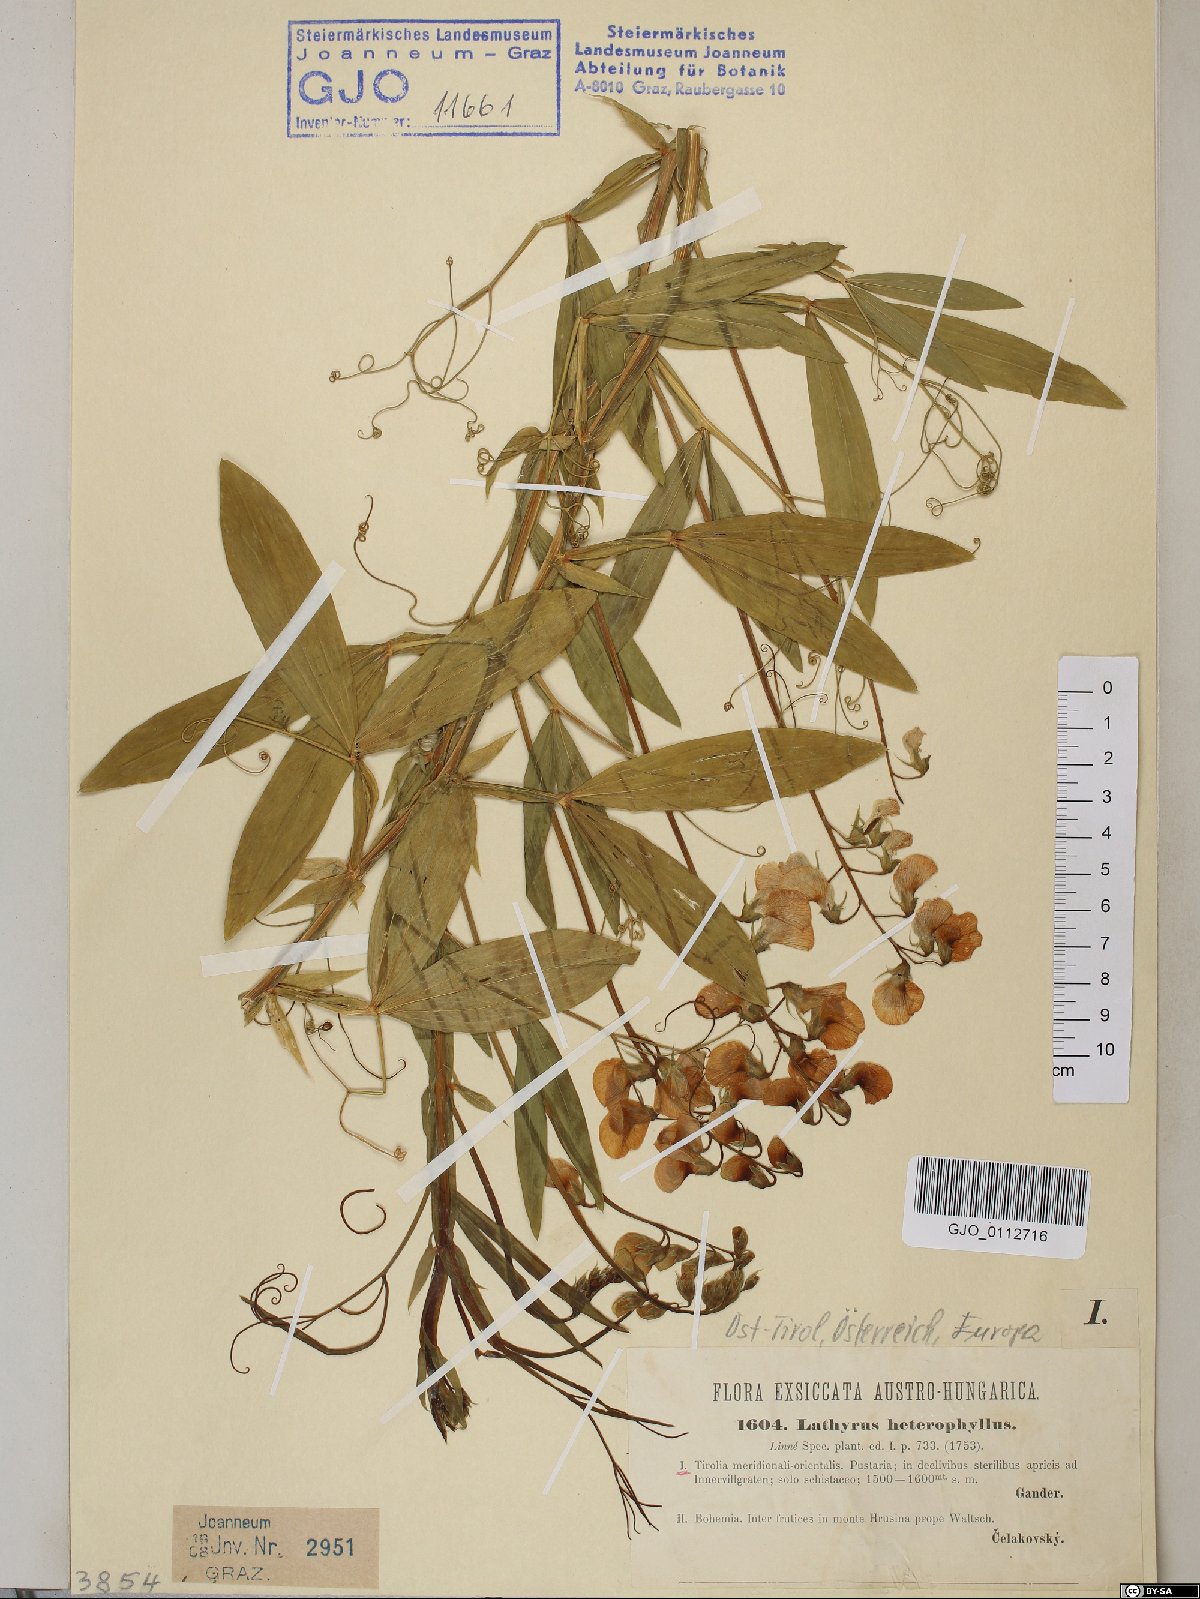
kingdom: Plantae
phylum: Tracheophyta
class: Magnoliopsida
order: Fabales
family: Fabaceae
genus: Lathyrus
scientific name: Lathyrus heterophyllus
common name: Norfolk everlasting-pea
